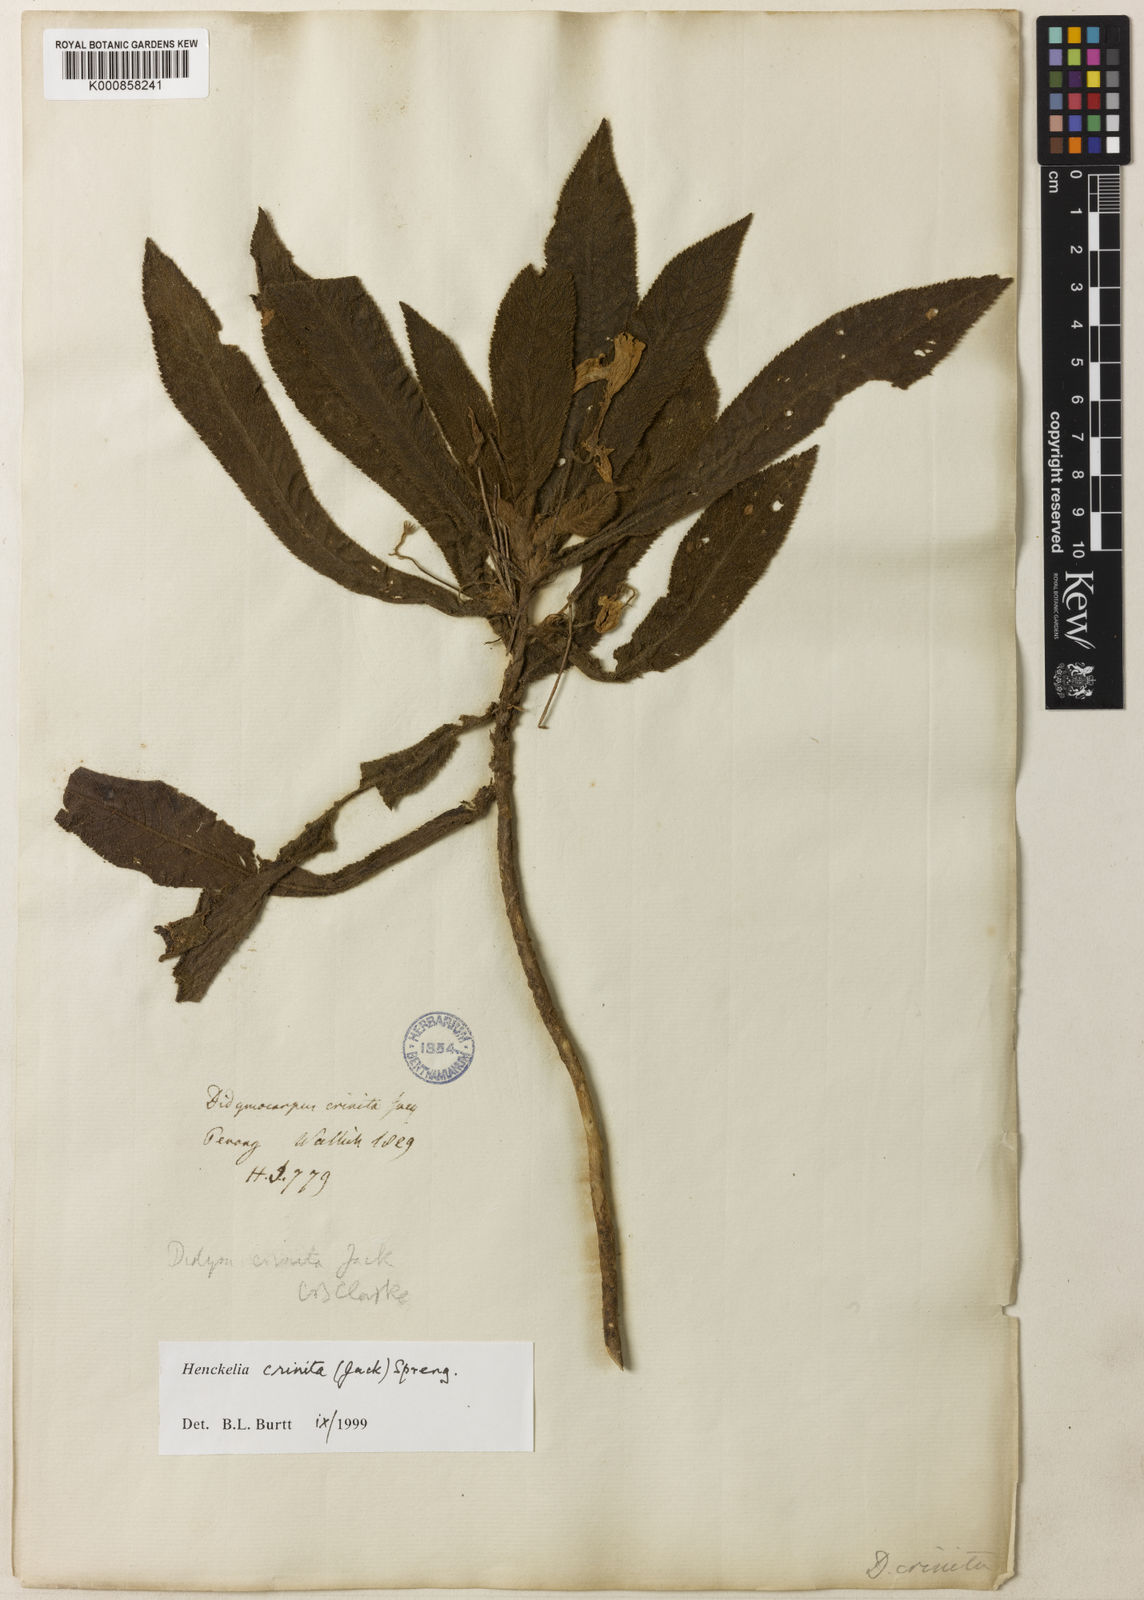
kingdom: Plantae
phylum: Tracheophyta
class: Magnoliopsida
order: Lamiales
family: Gesneriaceae
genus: Codonoboea
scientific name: Codonoboea crinita
